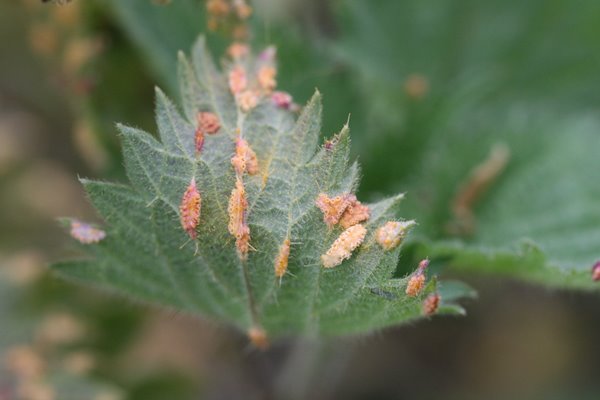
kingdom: Fungi
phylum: Basidiomycota
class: Pucciniomycetes
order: Pucciniales
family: Pucciniaceae
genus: Puccinia
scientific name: Puccinia urticata
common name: nældegalle-tvecellerust
